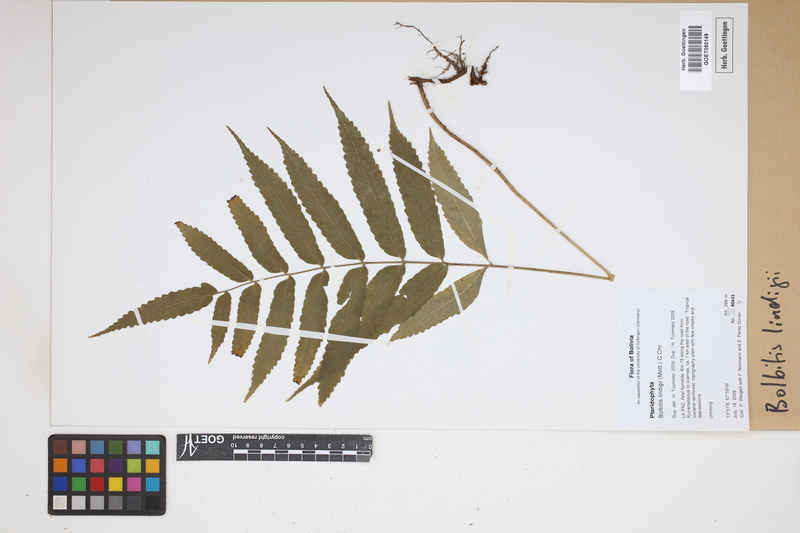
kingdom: Plantae
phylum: Tracheophyta
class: Polypodiopsida
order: Polypodiales
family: Dryopteridaceae
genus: Mickelia
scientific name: Mickelia lindigii
